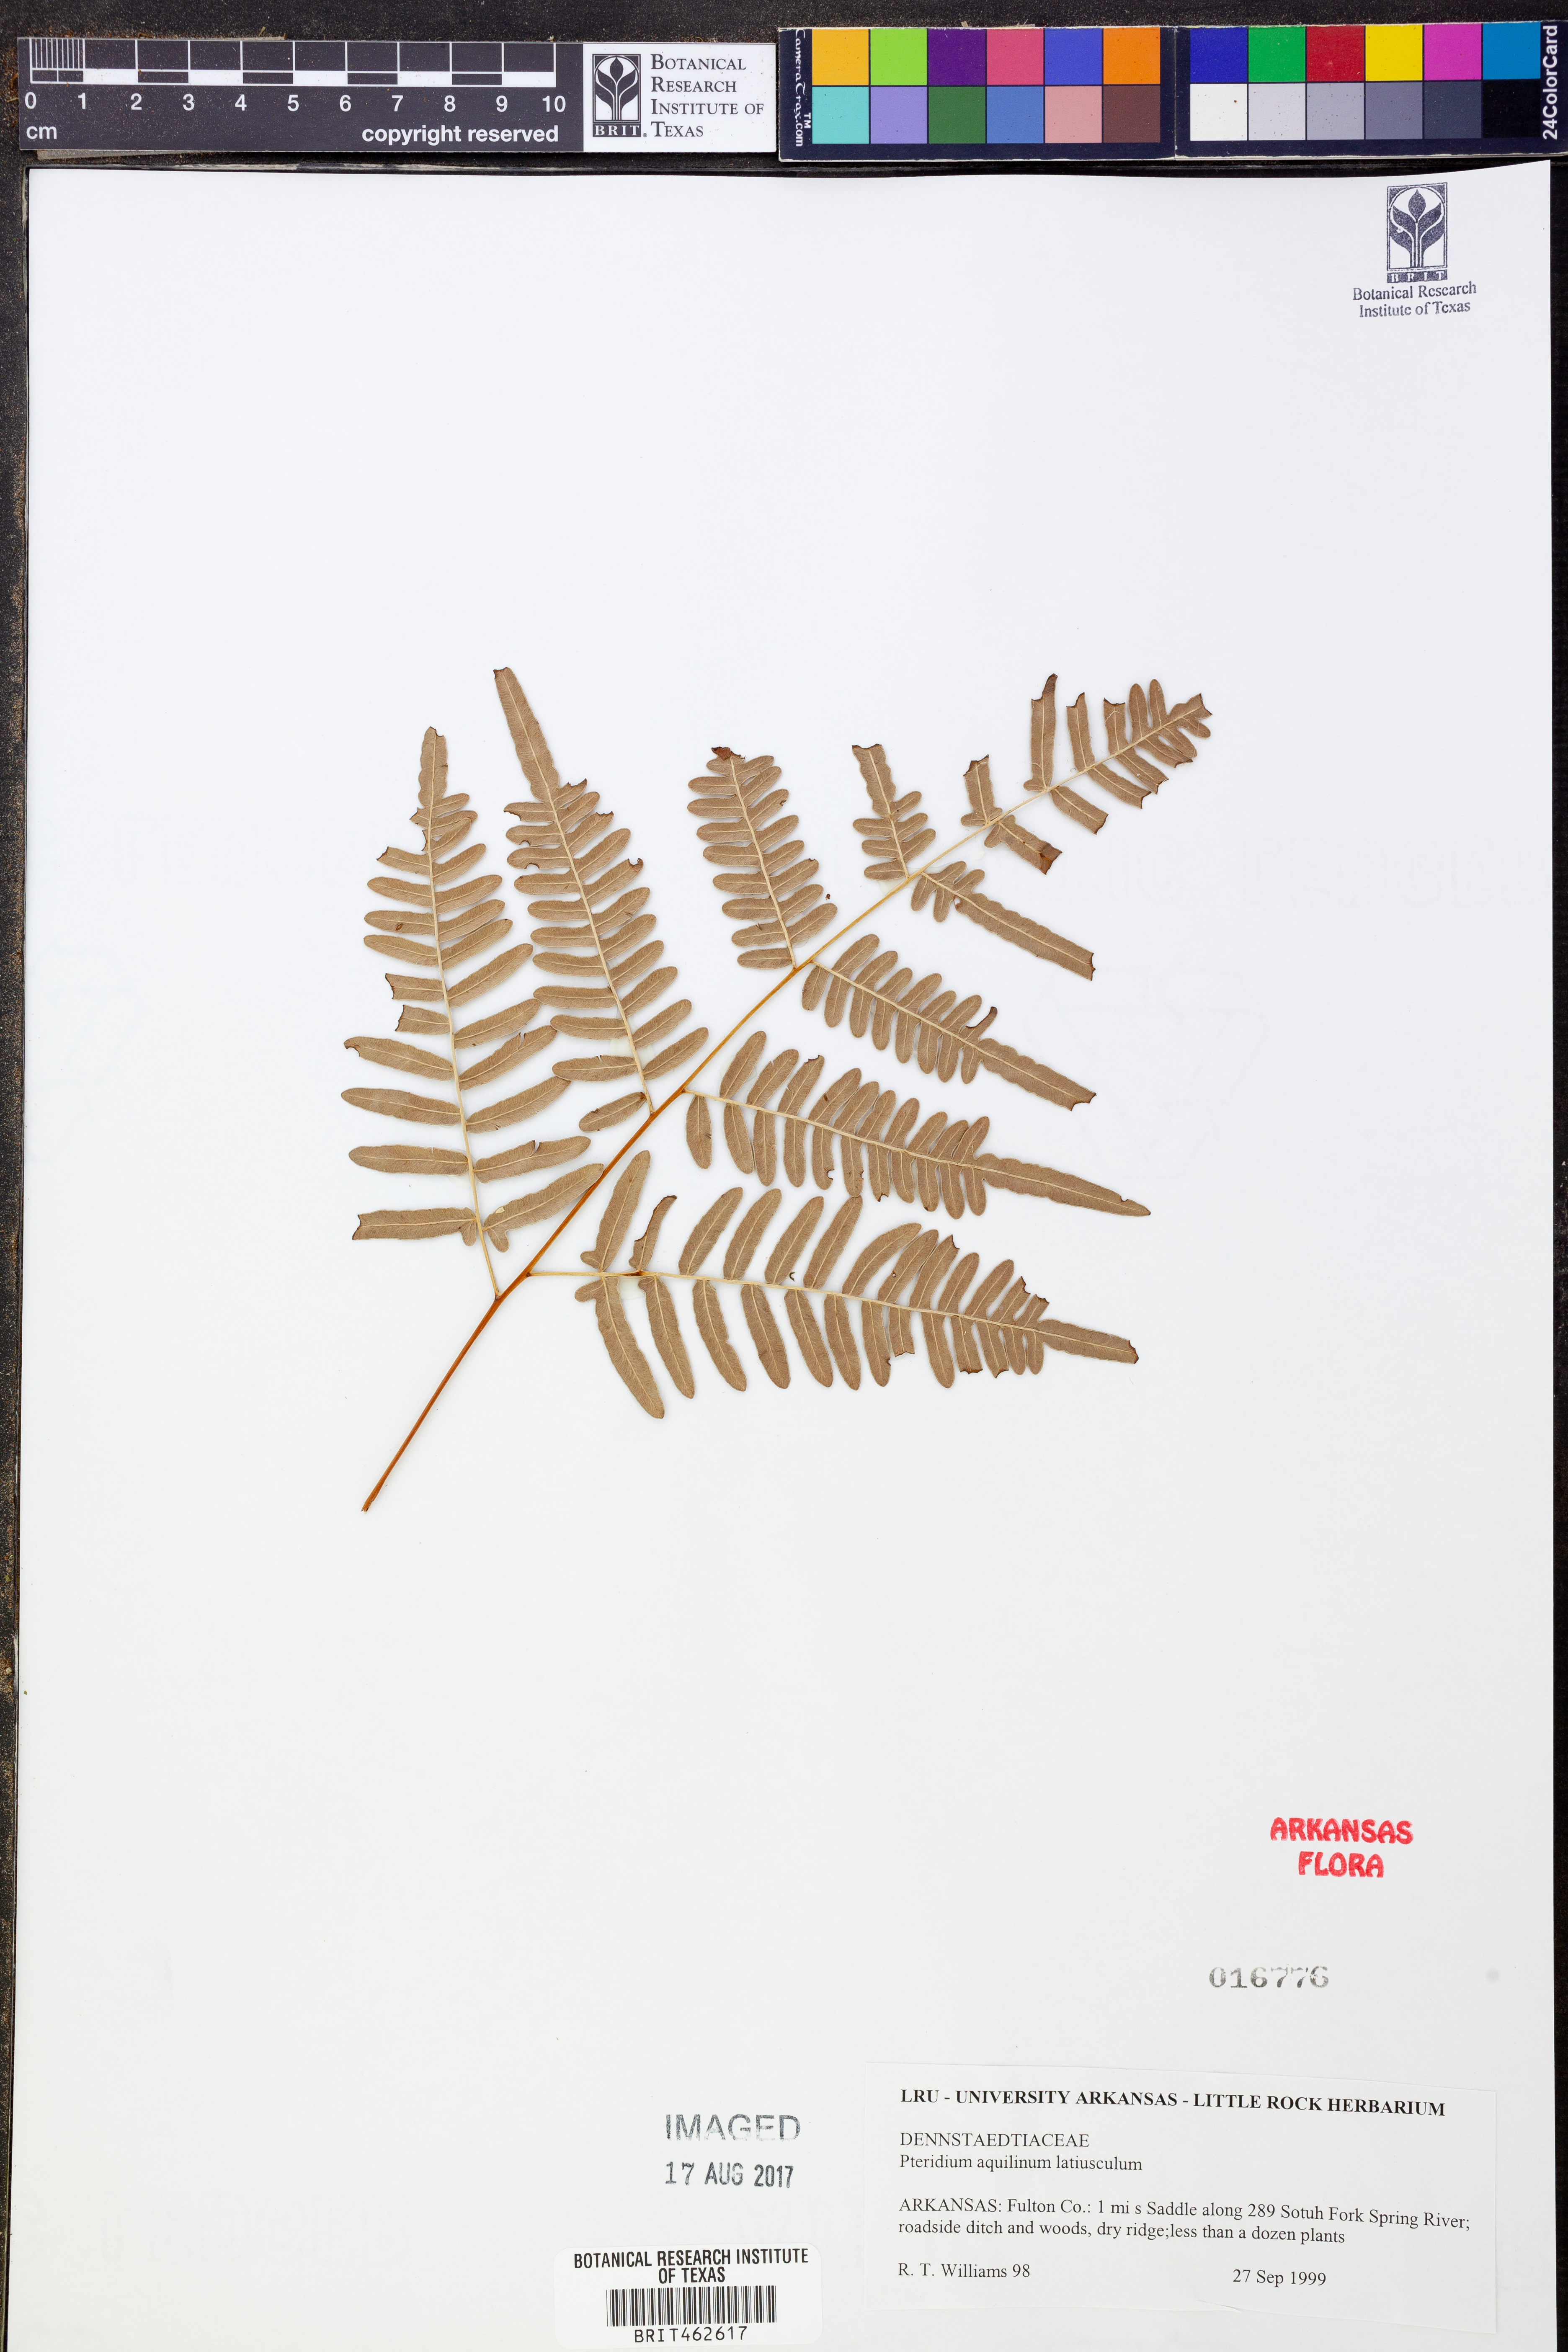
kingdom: Plantae
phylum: Tracheophyta
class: Polypodiopsida
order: Polypodiales
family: Dennstaedtiaceae
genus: Pteridium
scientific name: Pteridium aquilinum
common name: Bracken
